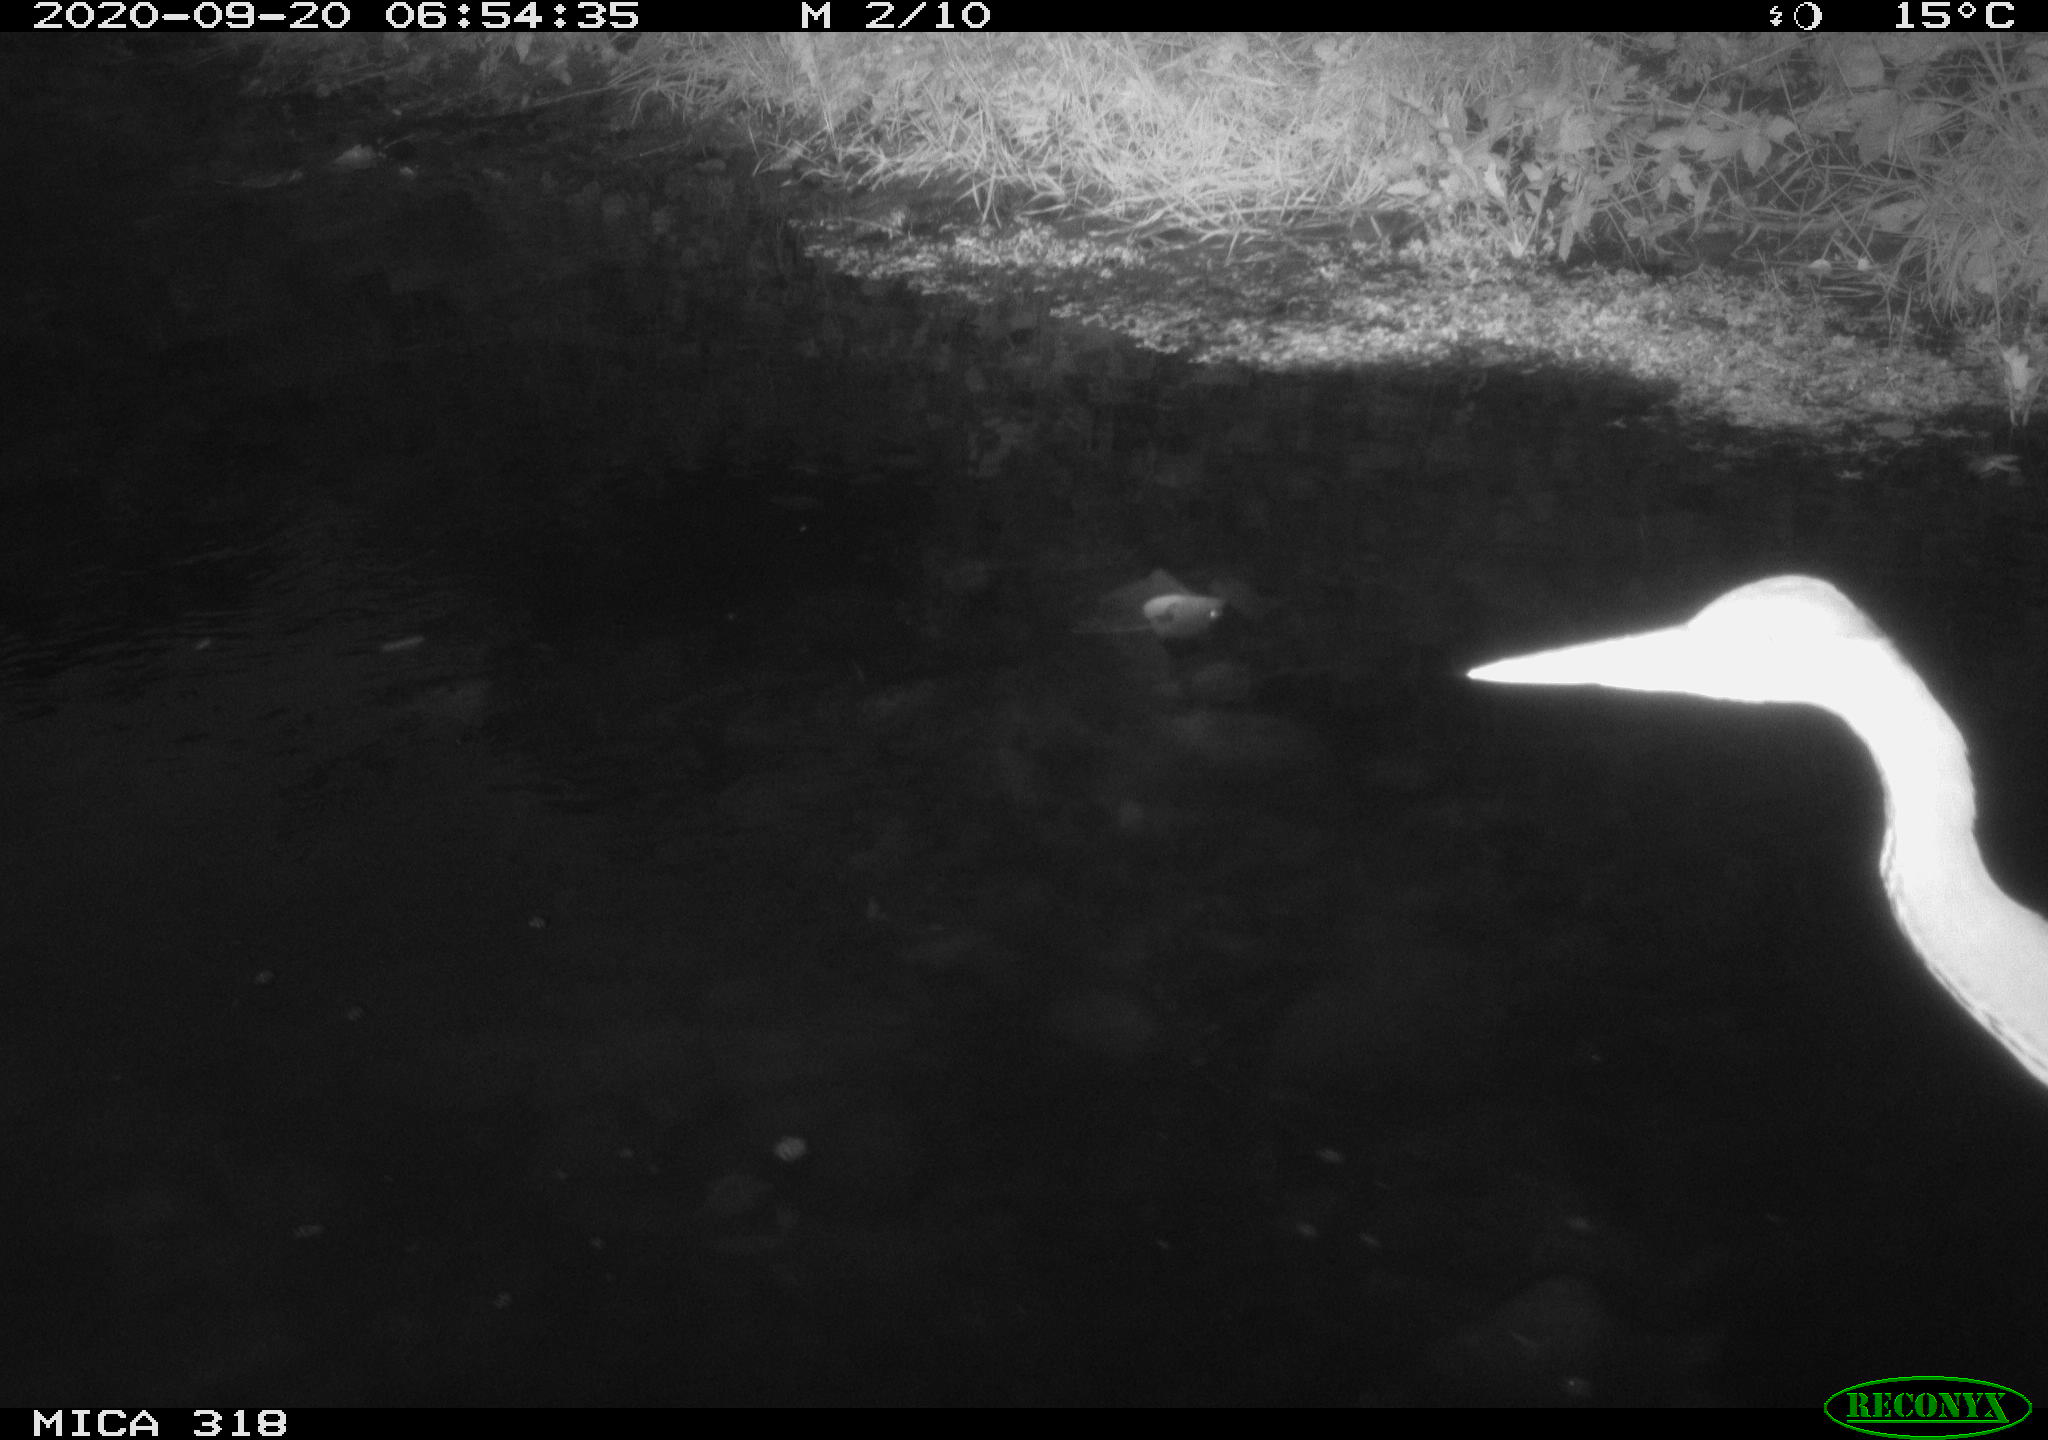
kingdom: Animalia
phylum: Chordata
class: Aves
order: Pelecaniformes
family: Ardeidae
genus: Ardea
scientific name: Ardea
